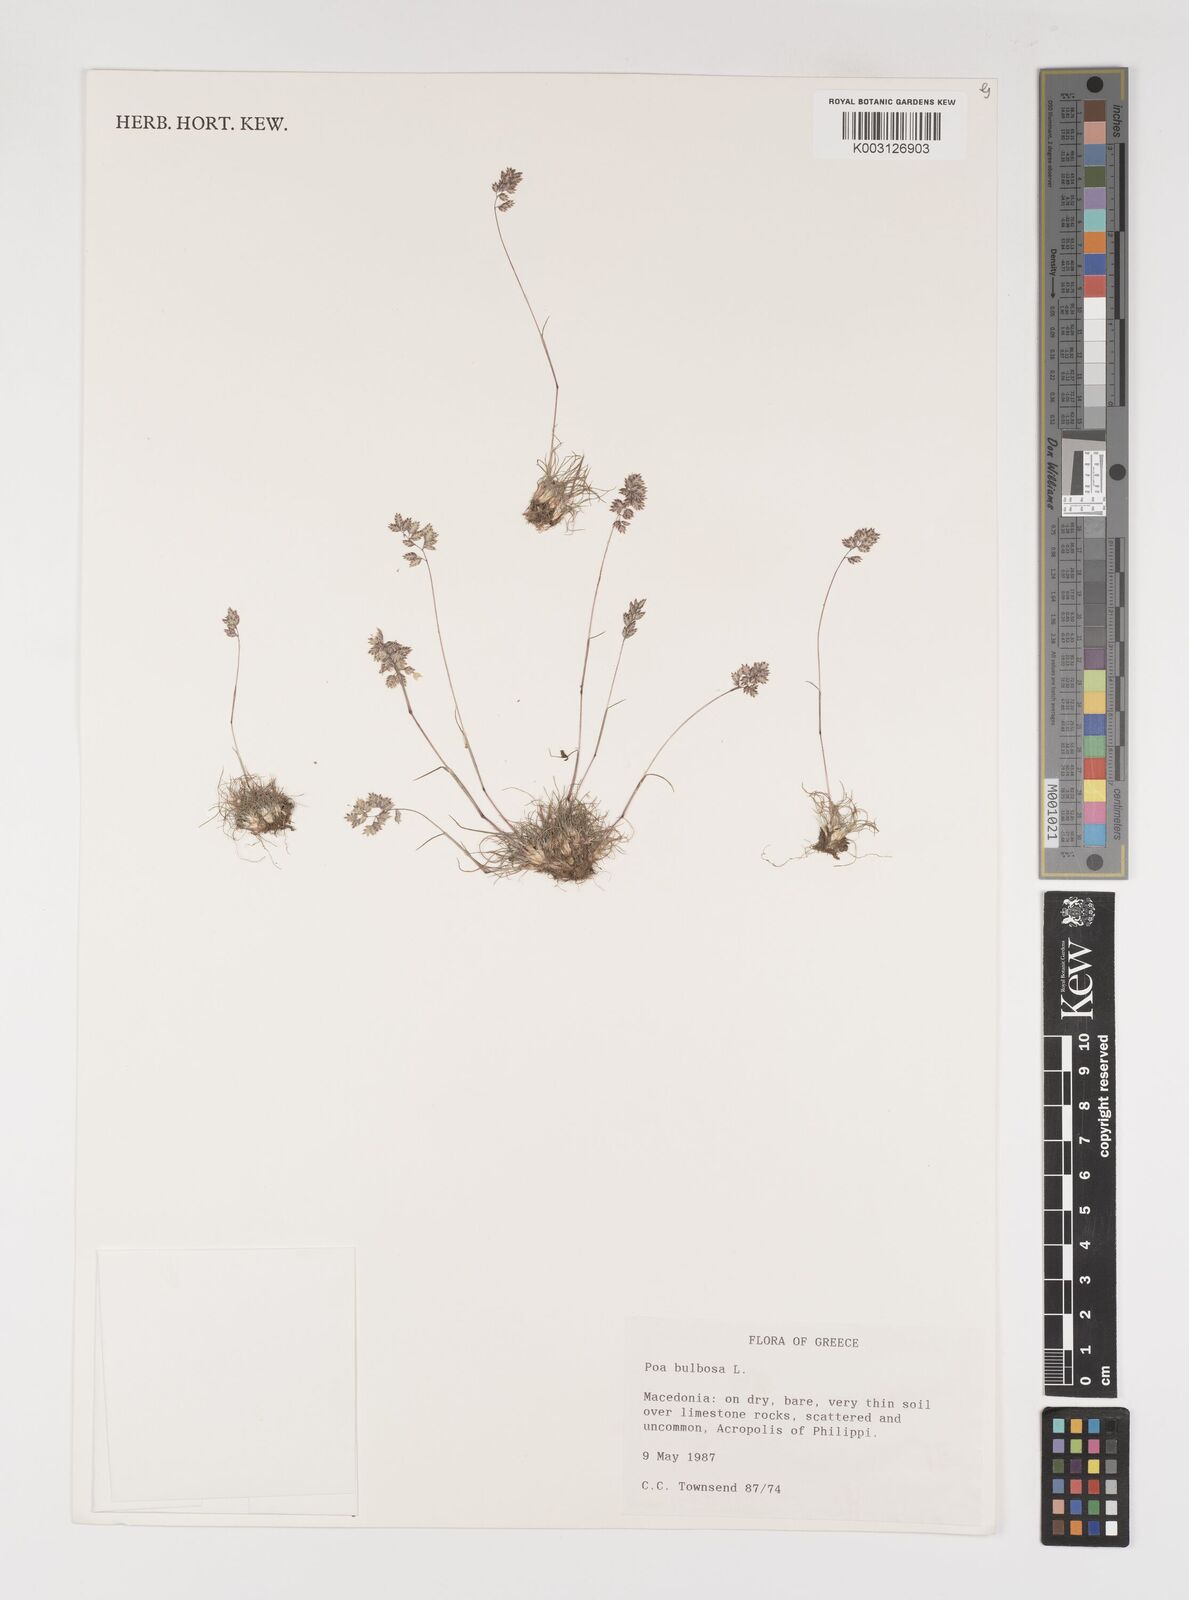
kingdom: Plantae
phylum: Tracheophyta
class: Liliopsida
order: Poales
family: Poaceae
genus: Poa
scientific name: Poa bulbosa
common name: Bulbous bluegrass
